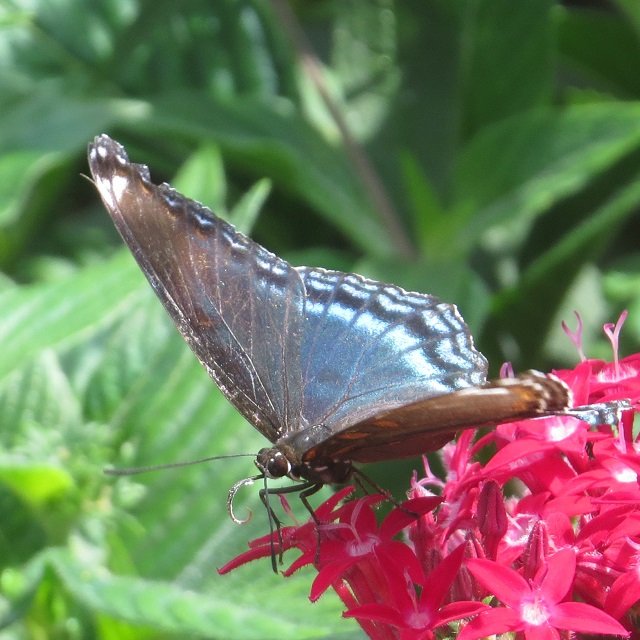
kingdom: Animalia
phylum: Arthropoda
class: Insecta
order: Lepidoptera
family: Nymphalidae
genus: Limenitis
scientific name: Limenitis astyanax
